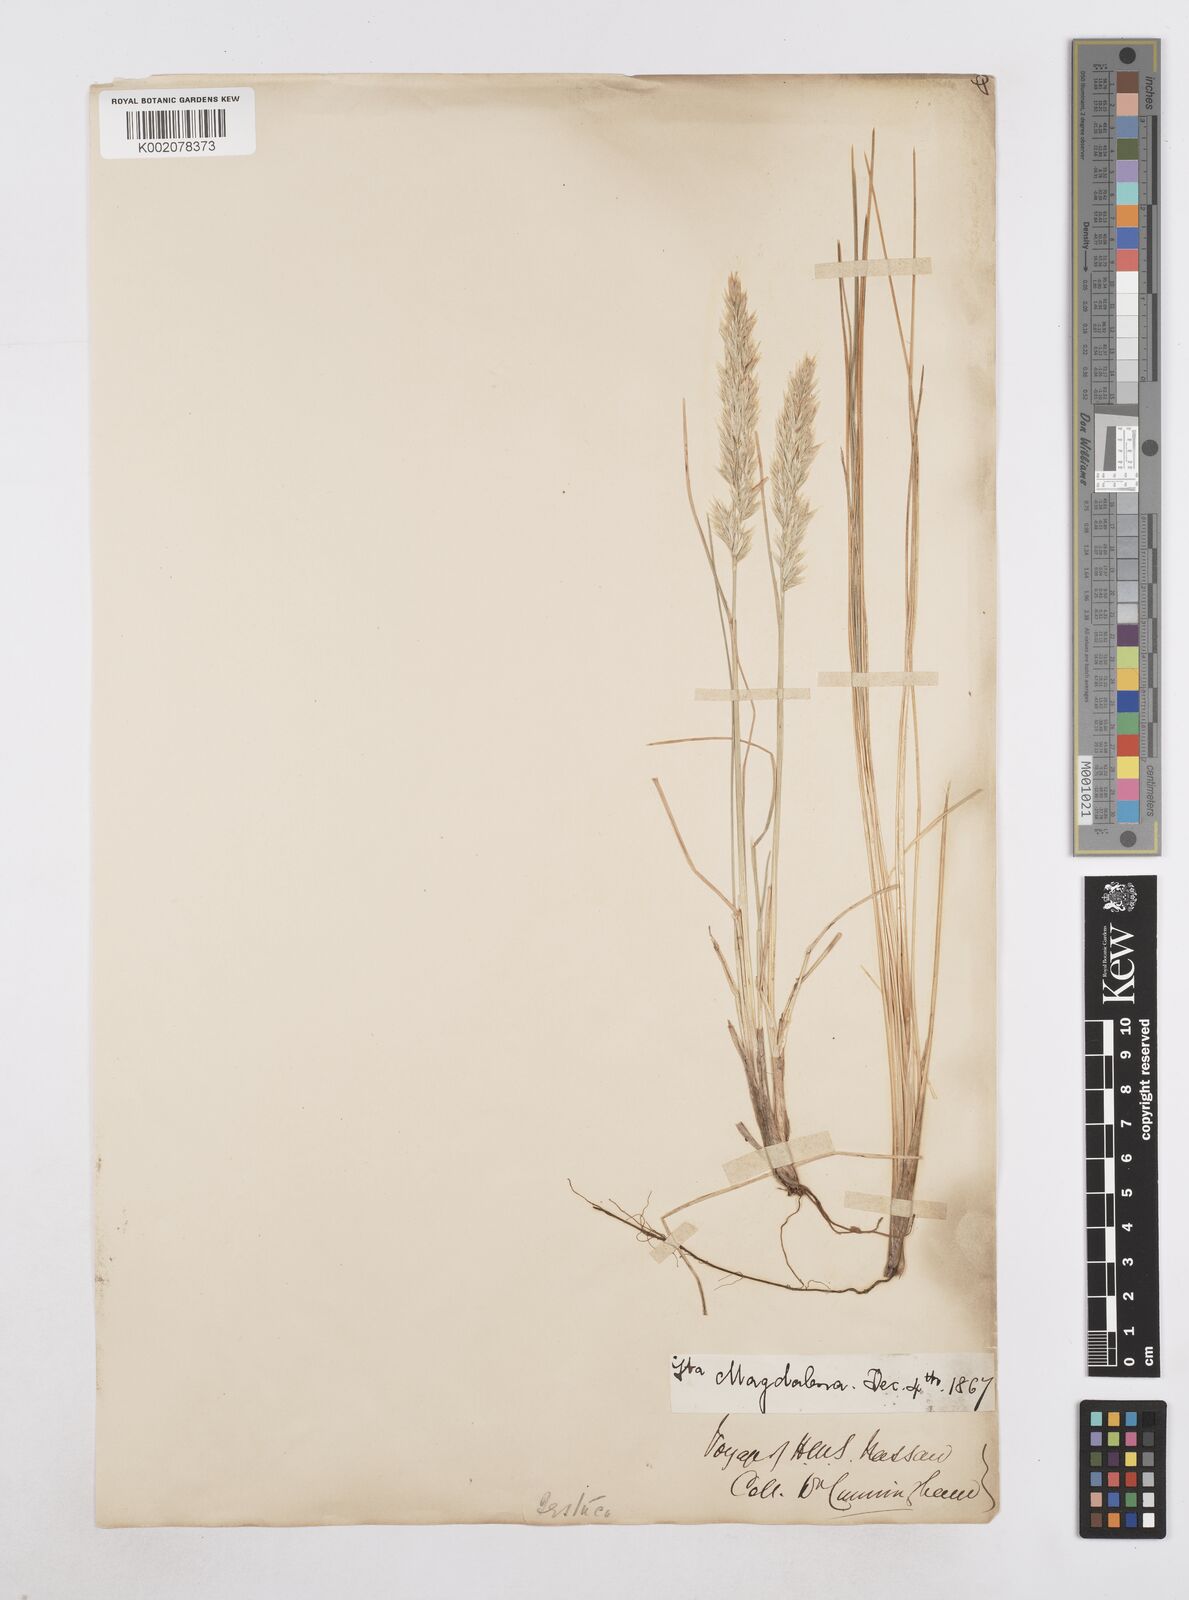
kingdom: Plantae
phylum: Tracheophyta
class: Liliopsida
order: Poales
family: Poaceae
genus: Poa
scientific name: Poa alopecurus
